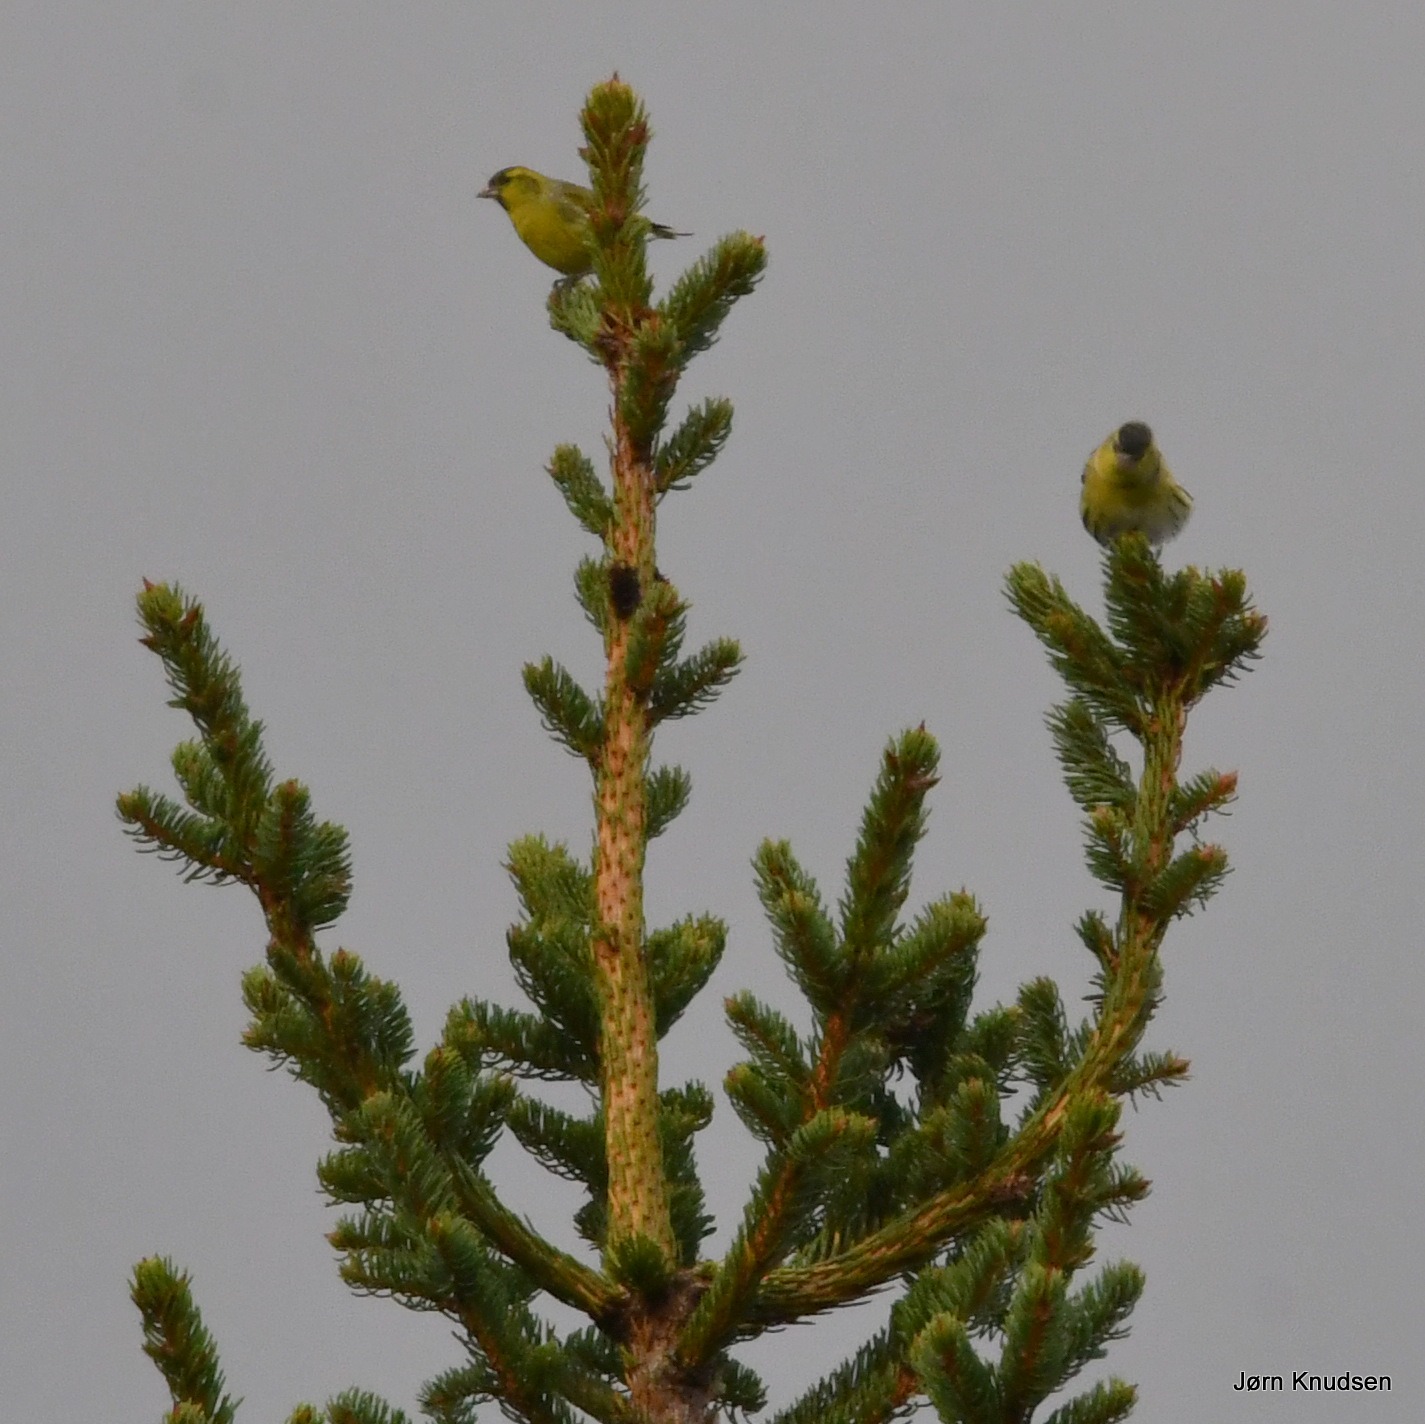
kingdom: Animalia
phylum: Chordata
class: Aves
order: Passeriformes
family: Fringillidae
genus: Spinus
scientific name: Spinus spinus
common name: Grønsisken
